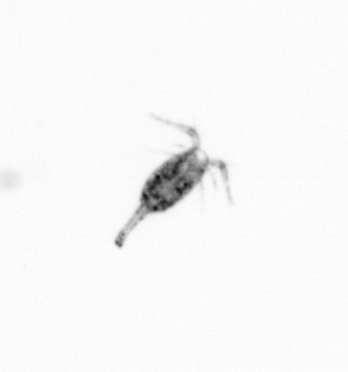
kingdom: Animalia
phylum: Arthropoda
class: Copepoda
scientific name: Copepoda
